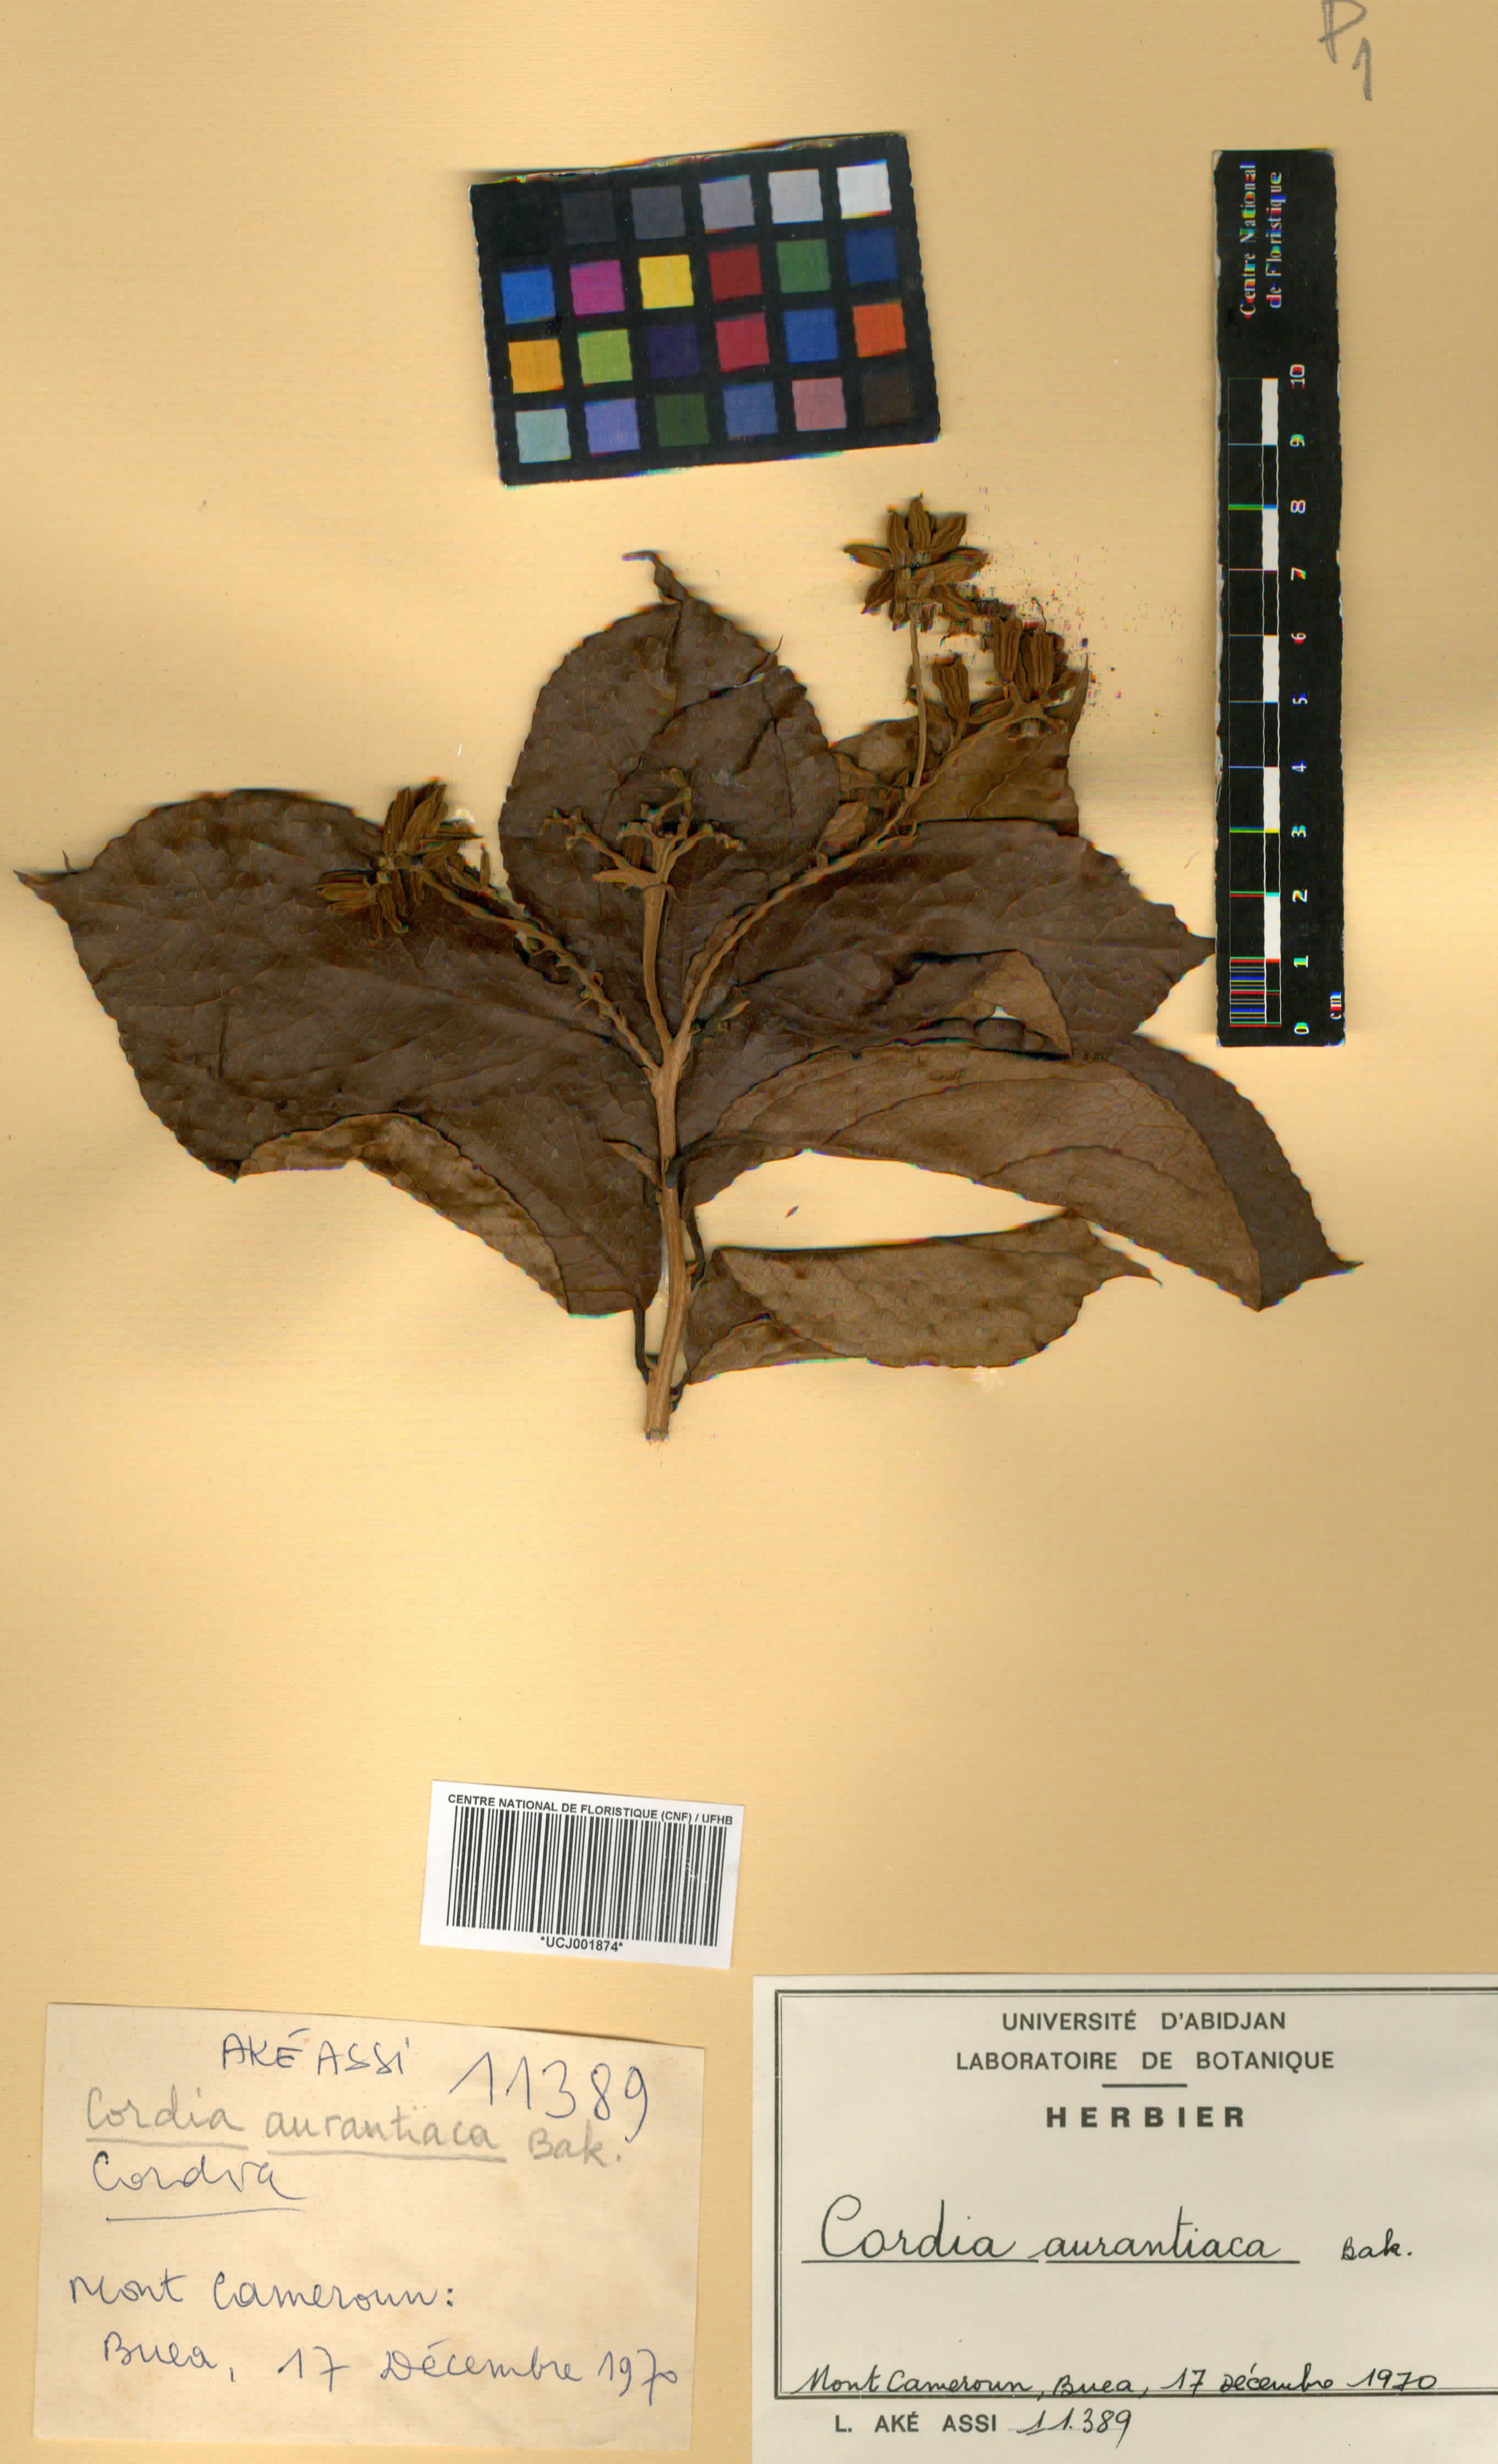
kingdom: Plantae
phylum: Tracheophyta
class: Magnoliopsida
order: Boraginales
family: Cordiaceae
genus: Cordia
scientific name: Cordia aurantiaca
